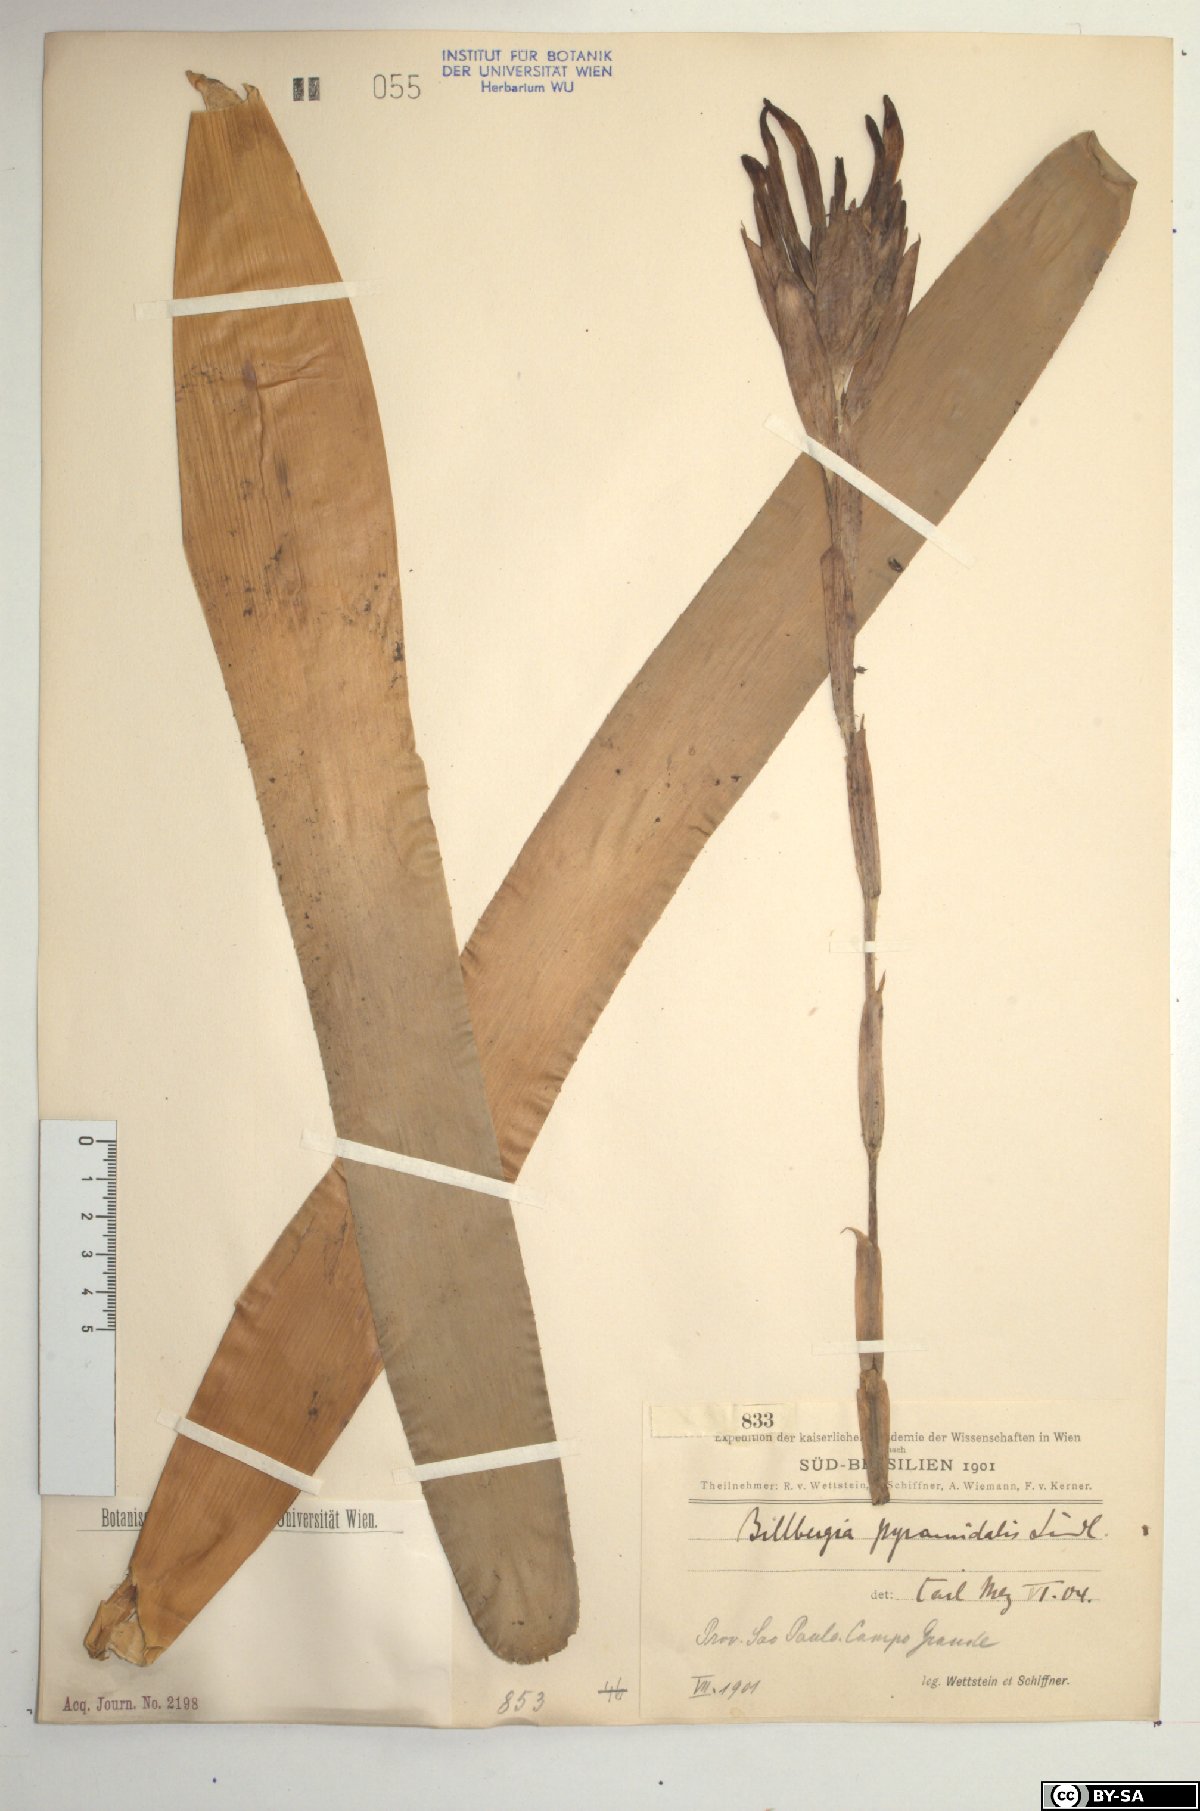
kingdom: Plantae
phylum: Tracheophyta
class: Liliopsida
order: Poales
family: Bromeliaceae
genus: Billbergia
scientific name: Billbergia pyramidalis
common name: Foolproofplant
